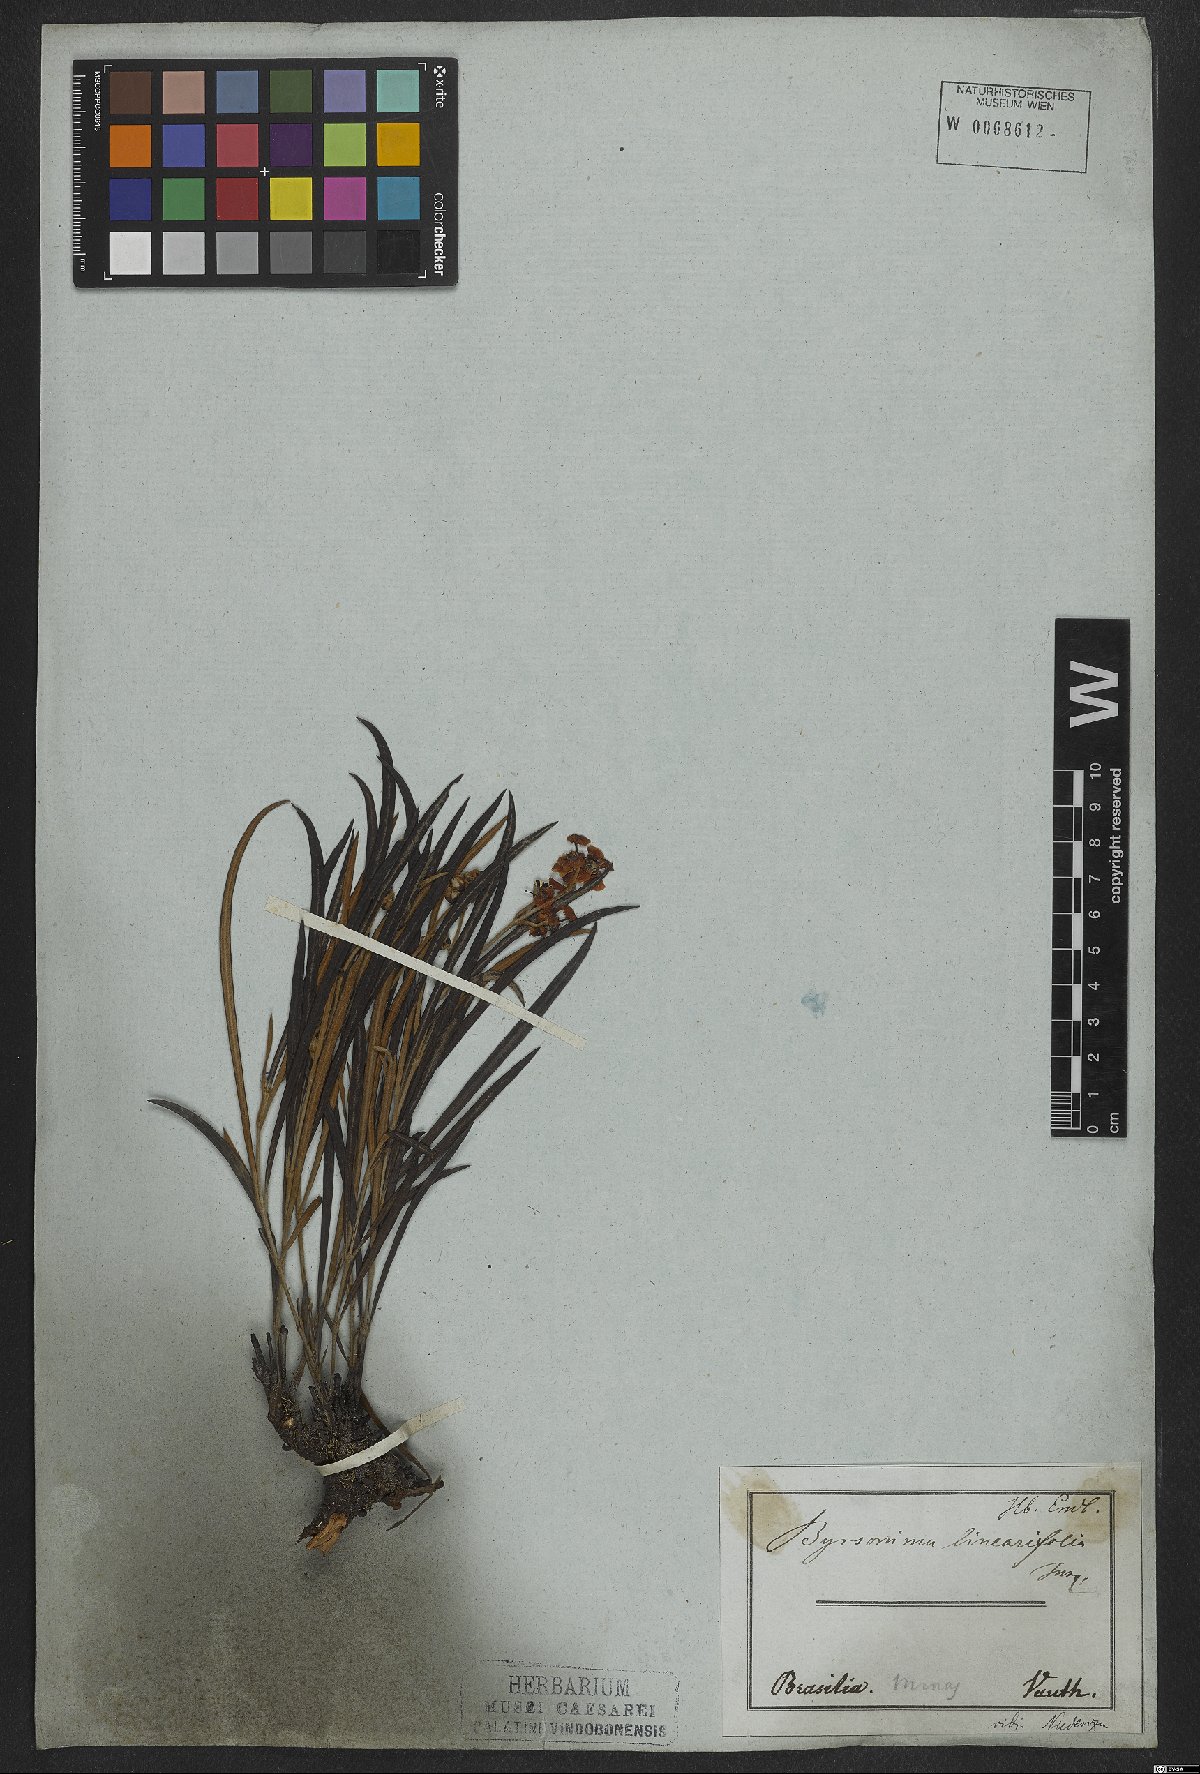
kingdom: Plantae
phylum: Tracheophyta
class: Magnoliopsida
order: Malpighiales
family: Malpighiaceae
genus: Byrsonima
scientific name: Byrsonima linearifolia
